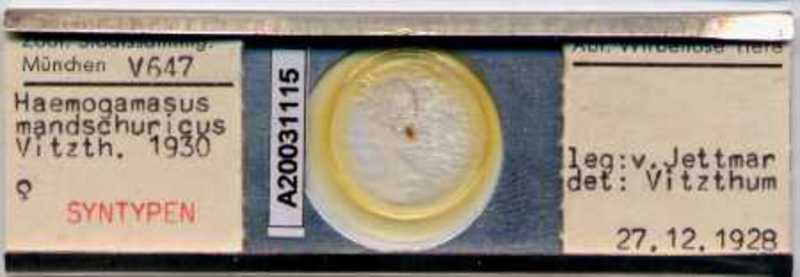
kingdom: Animalia
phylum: Arthropoda
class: Arachnida
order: Mesostigmata
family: Parasitidae
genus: Haemogamasus
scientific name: Haemogamasus mandshuricus
